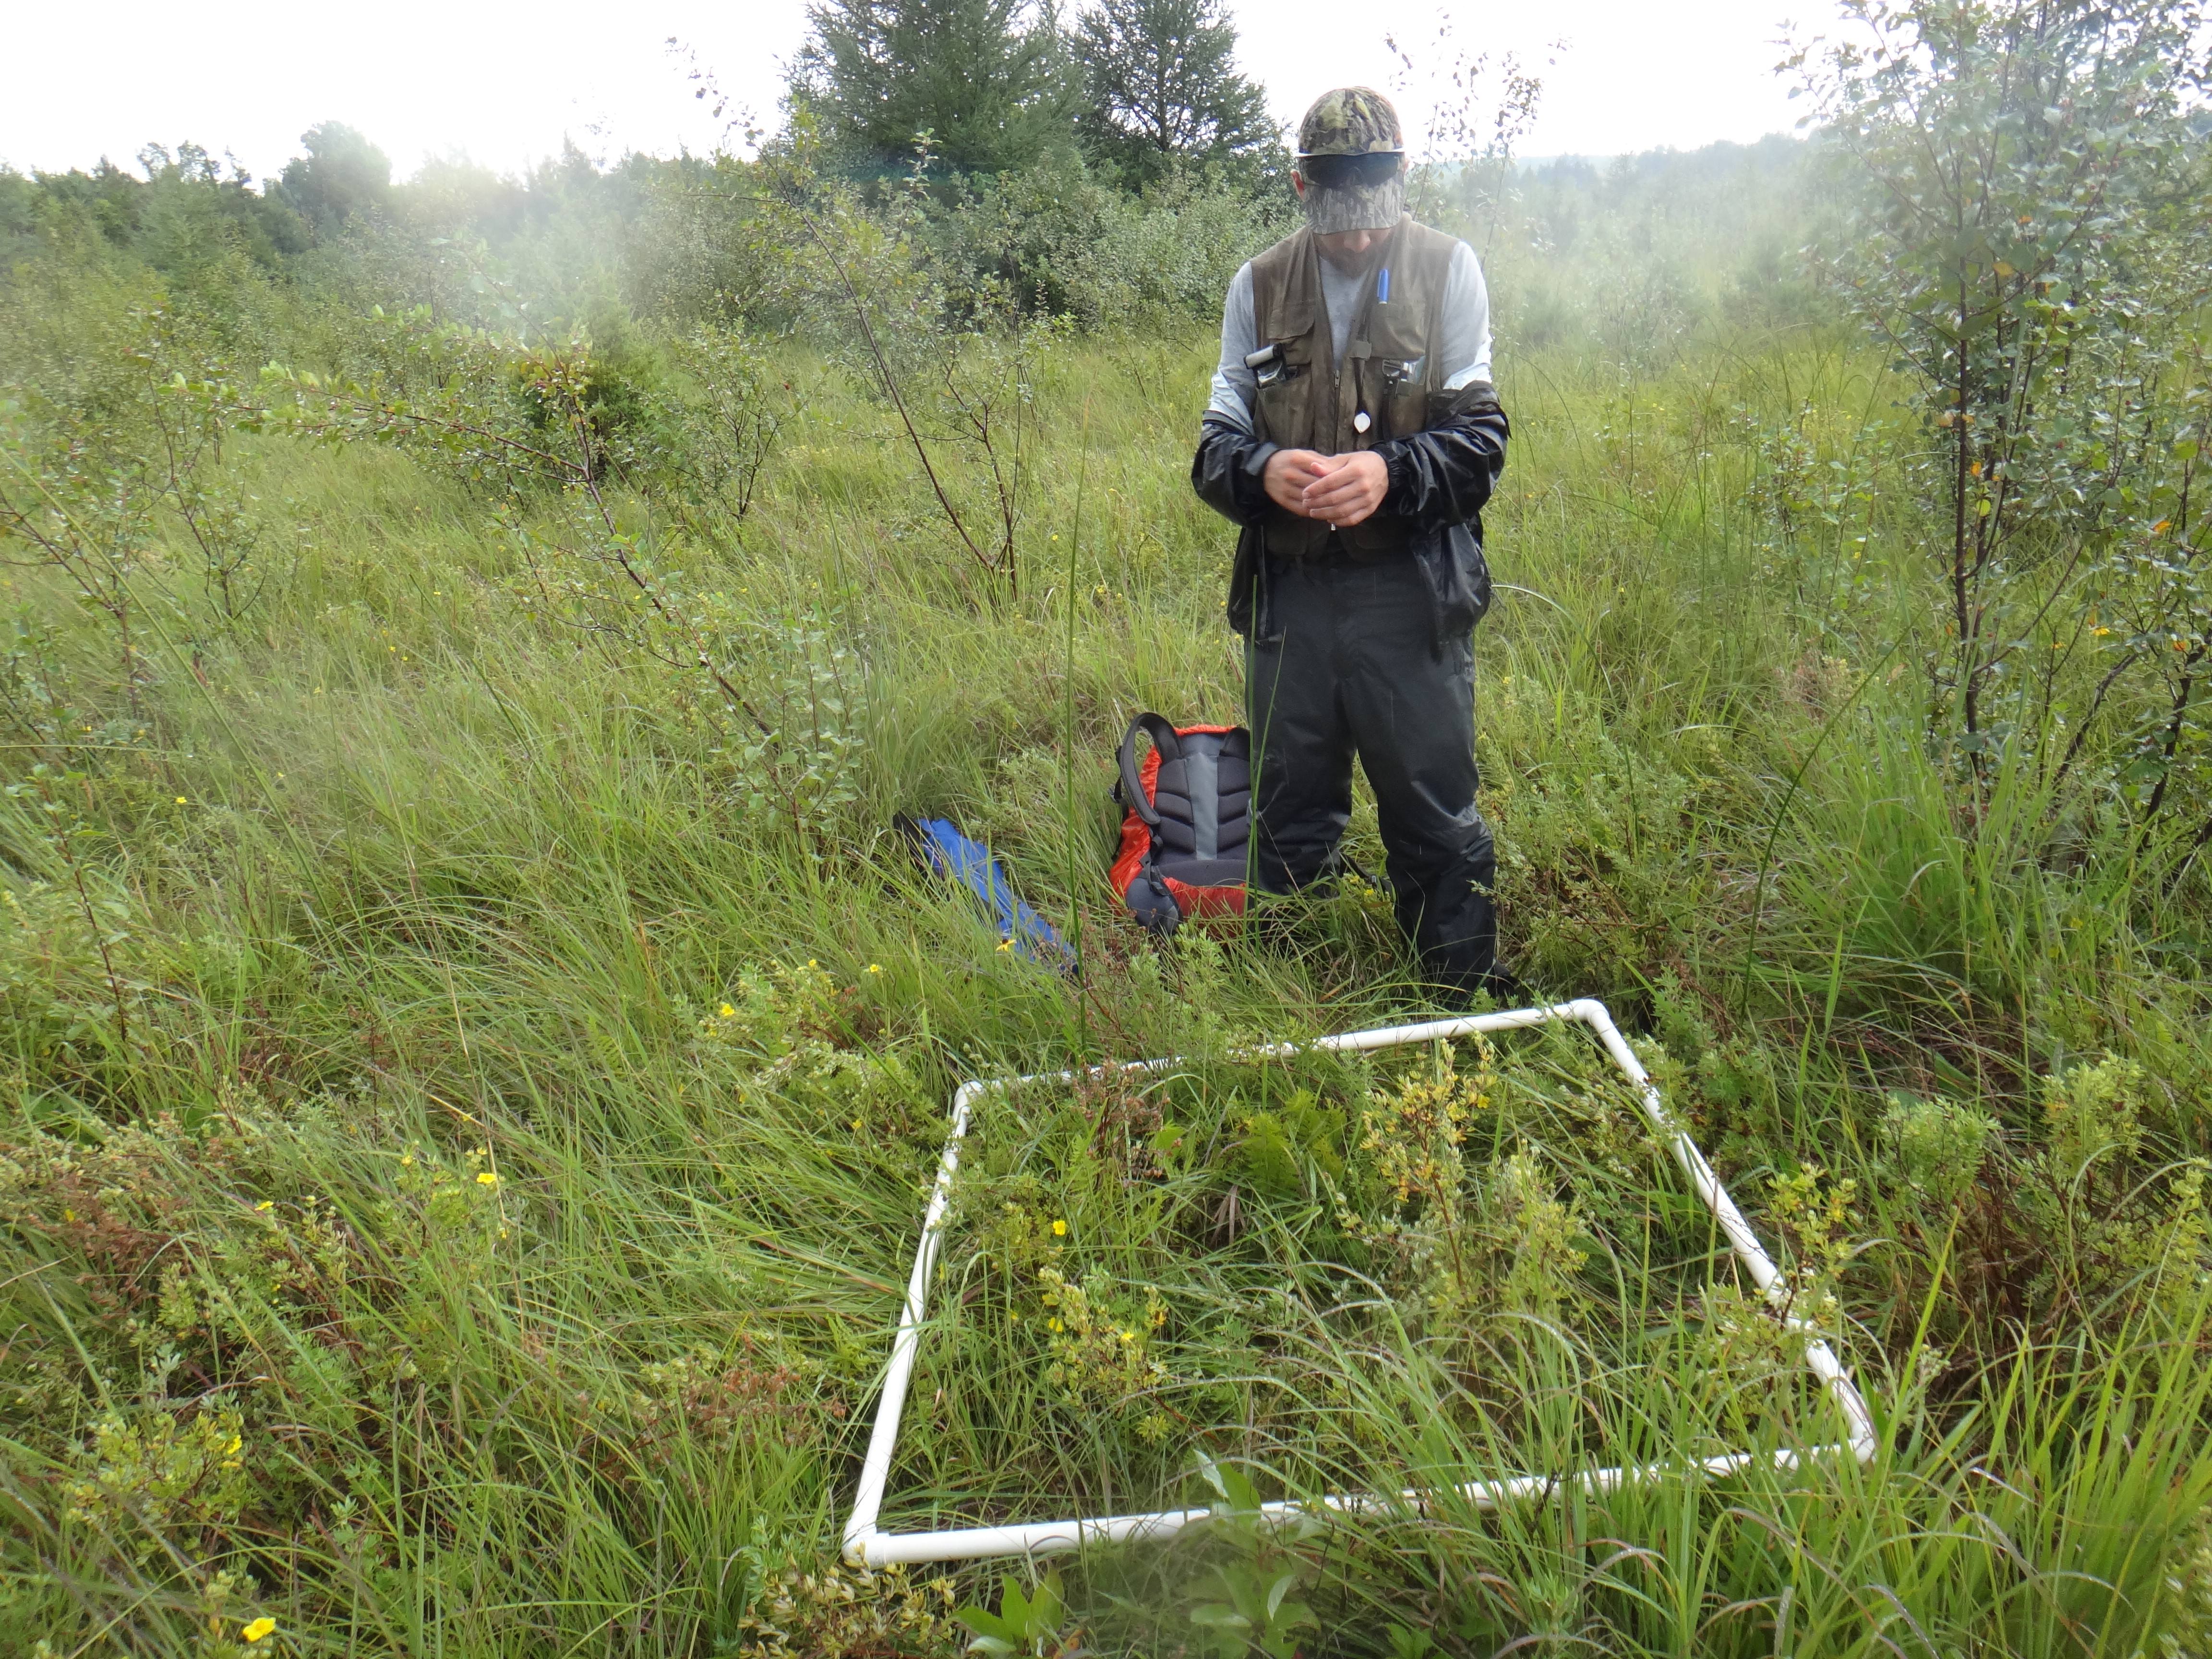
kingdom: Plantae
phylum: Tracheophyta
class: Magnoliopsida
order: Asterales
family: Asteraceae
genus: Cirsium
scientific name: Cirsium muticum
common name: Dunce-nettle
